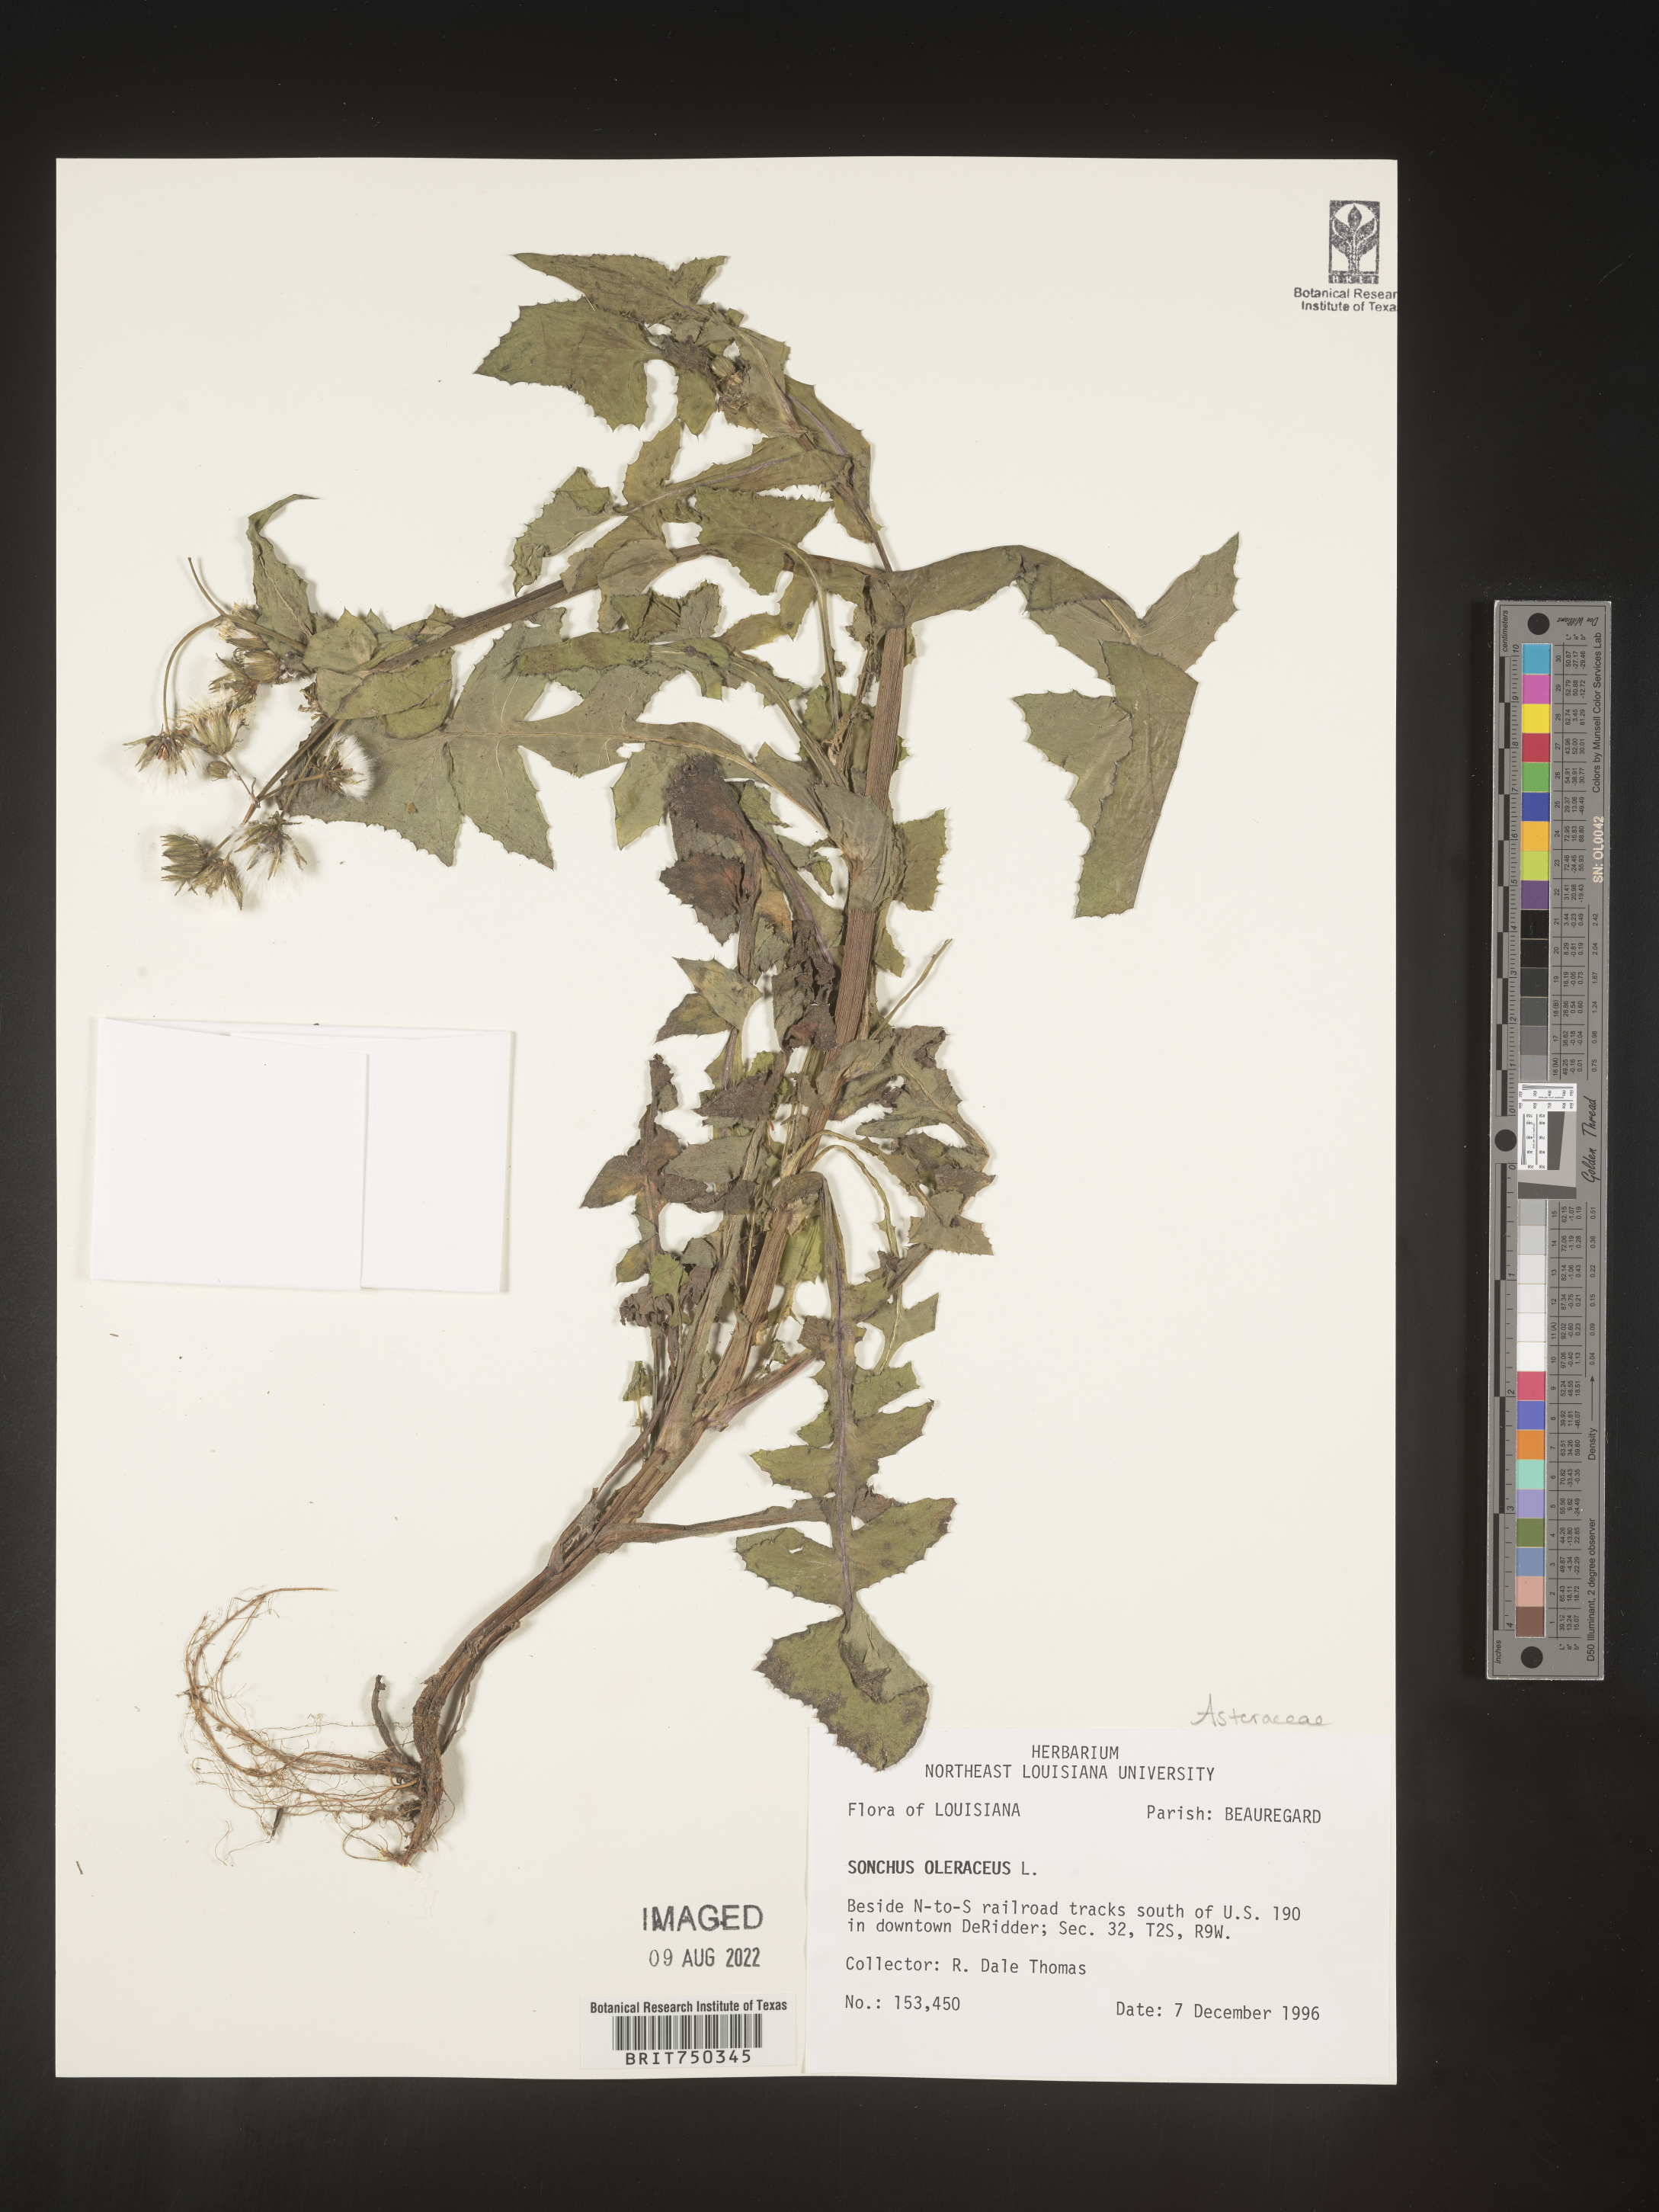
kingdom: Plantae
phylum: Tracheophyta
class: Magnoliopsida
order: Asterales
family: Asteraceae
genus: Sonchus
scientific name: Sonchus oleraceus
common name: Common sowthistle
